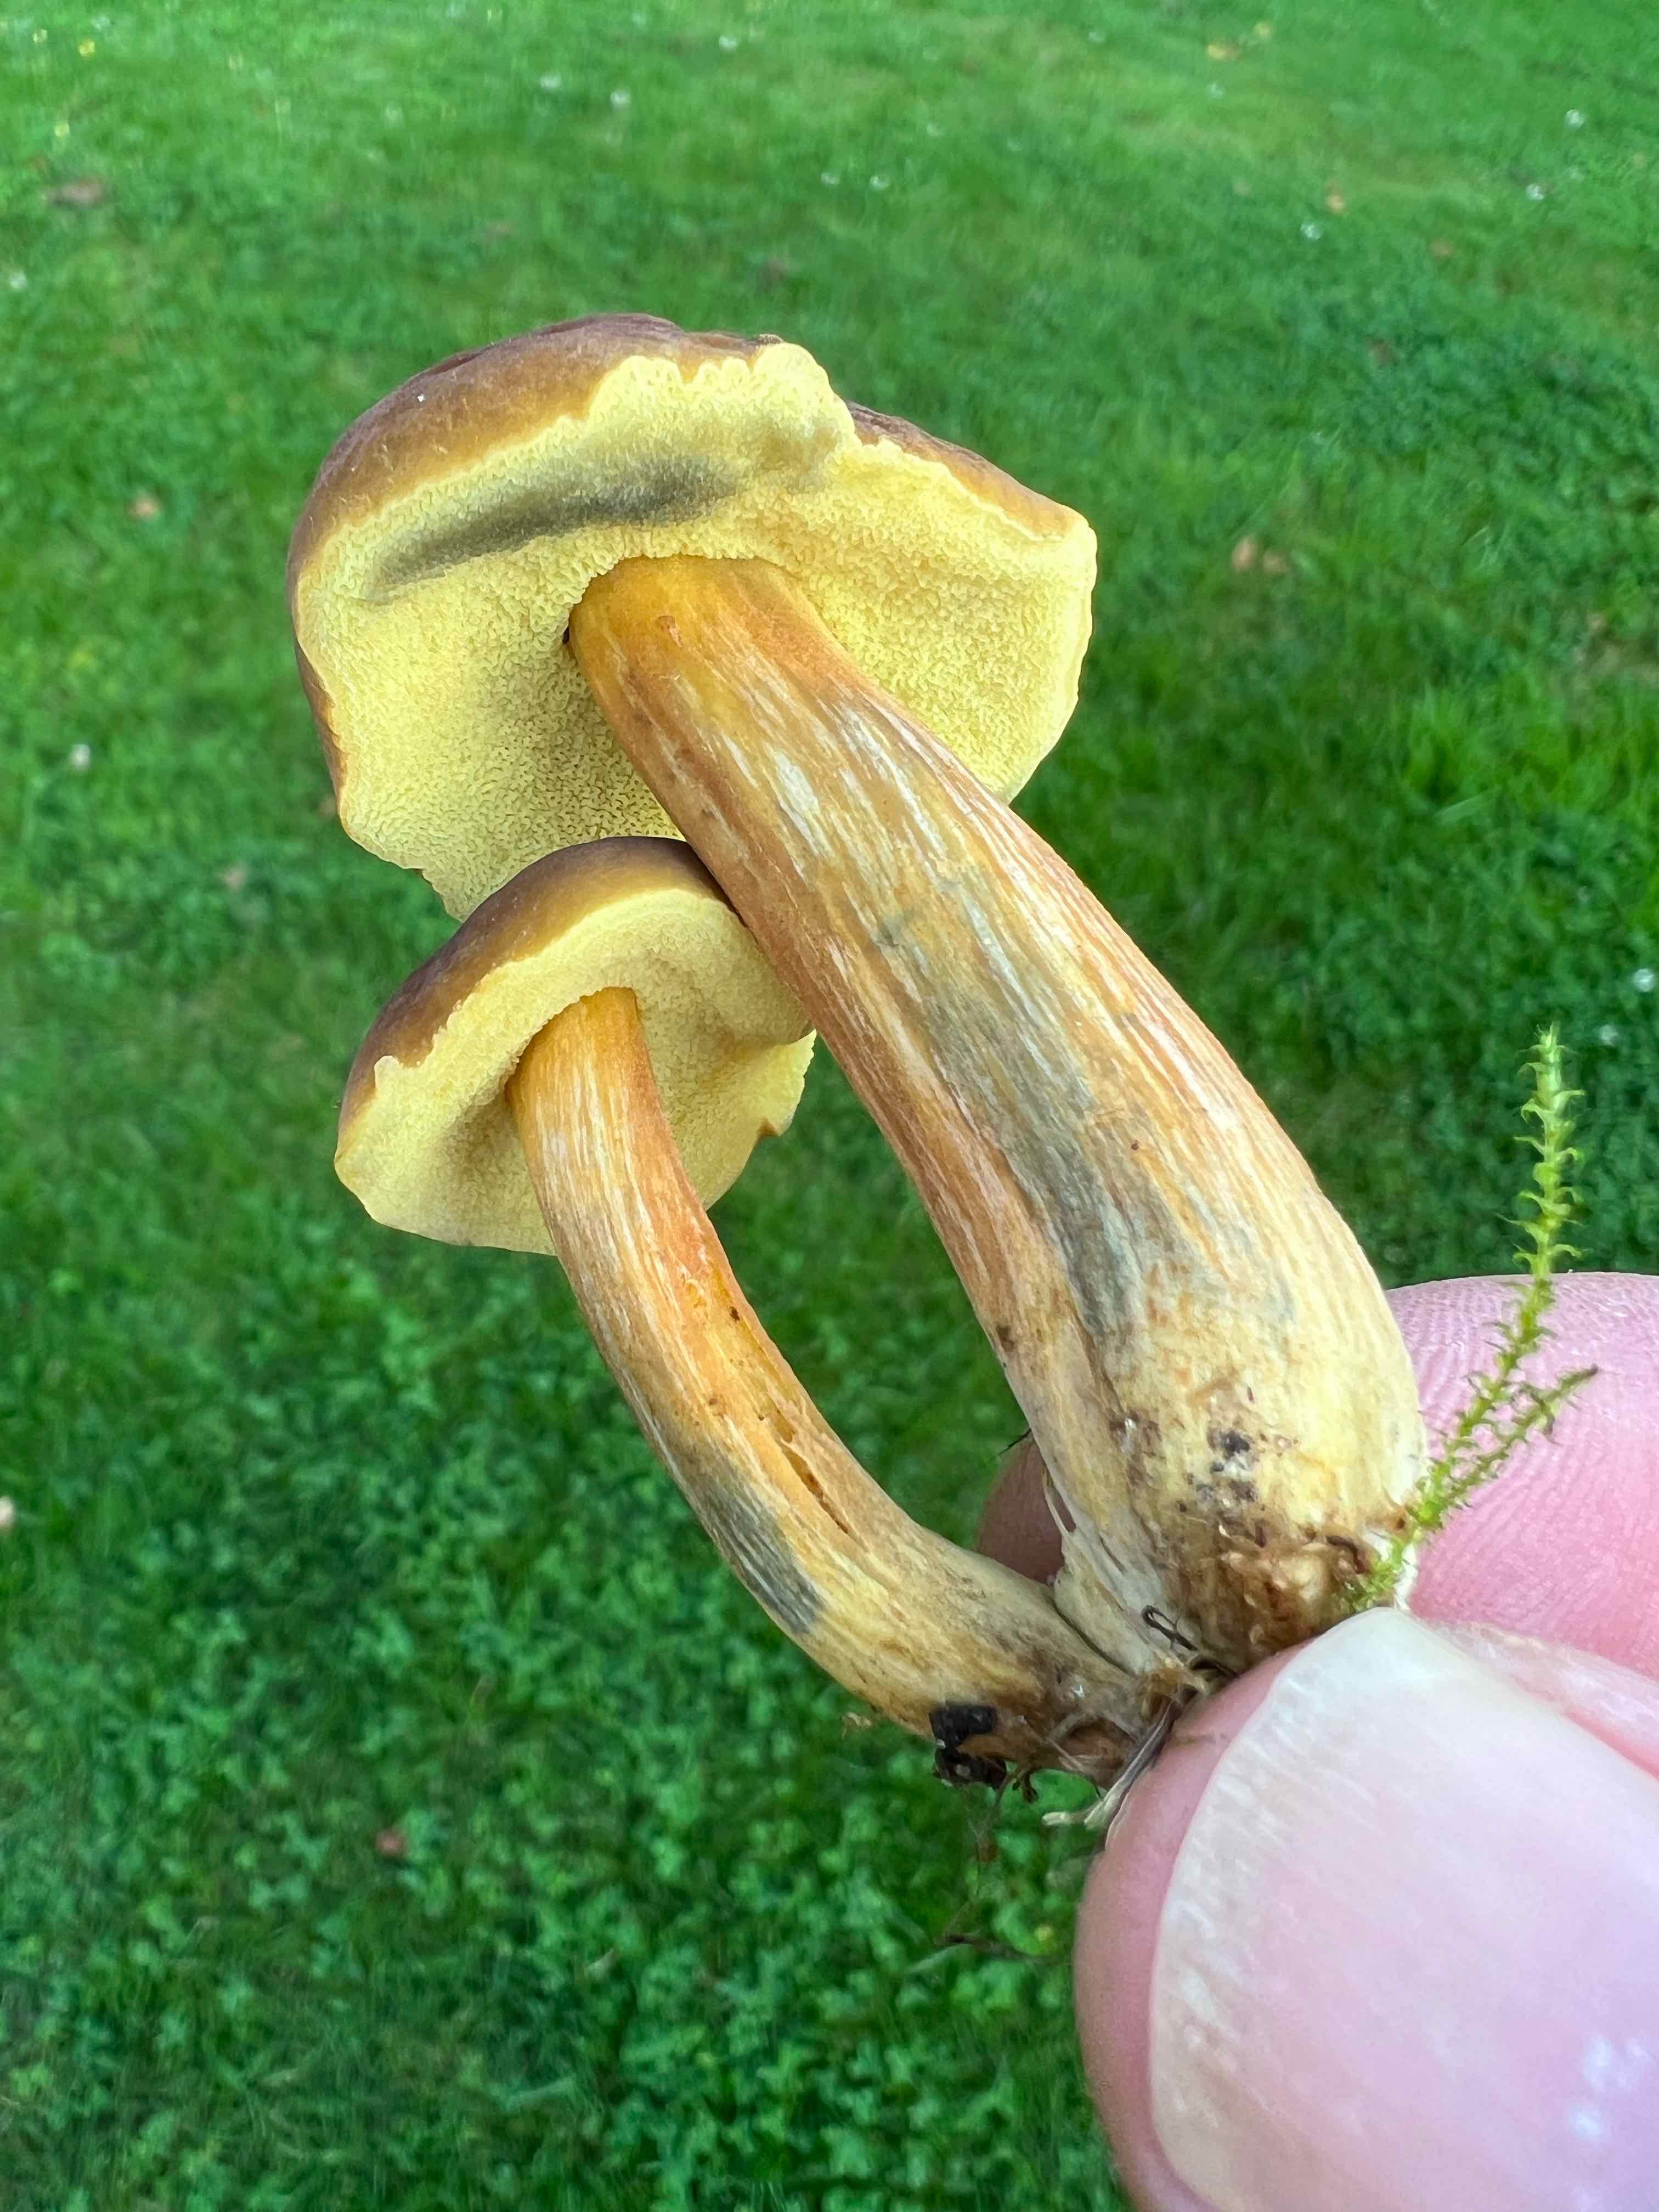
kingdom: Fungi
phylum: Basidiomycota
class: Agaricomycetes
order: Boletales
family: Boletaceae
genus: Hortiboletus
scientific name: Hortiboletus bubalinus
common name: aurora-rørhat
